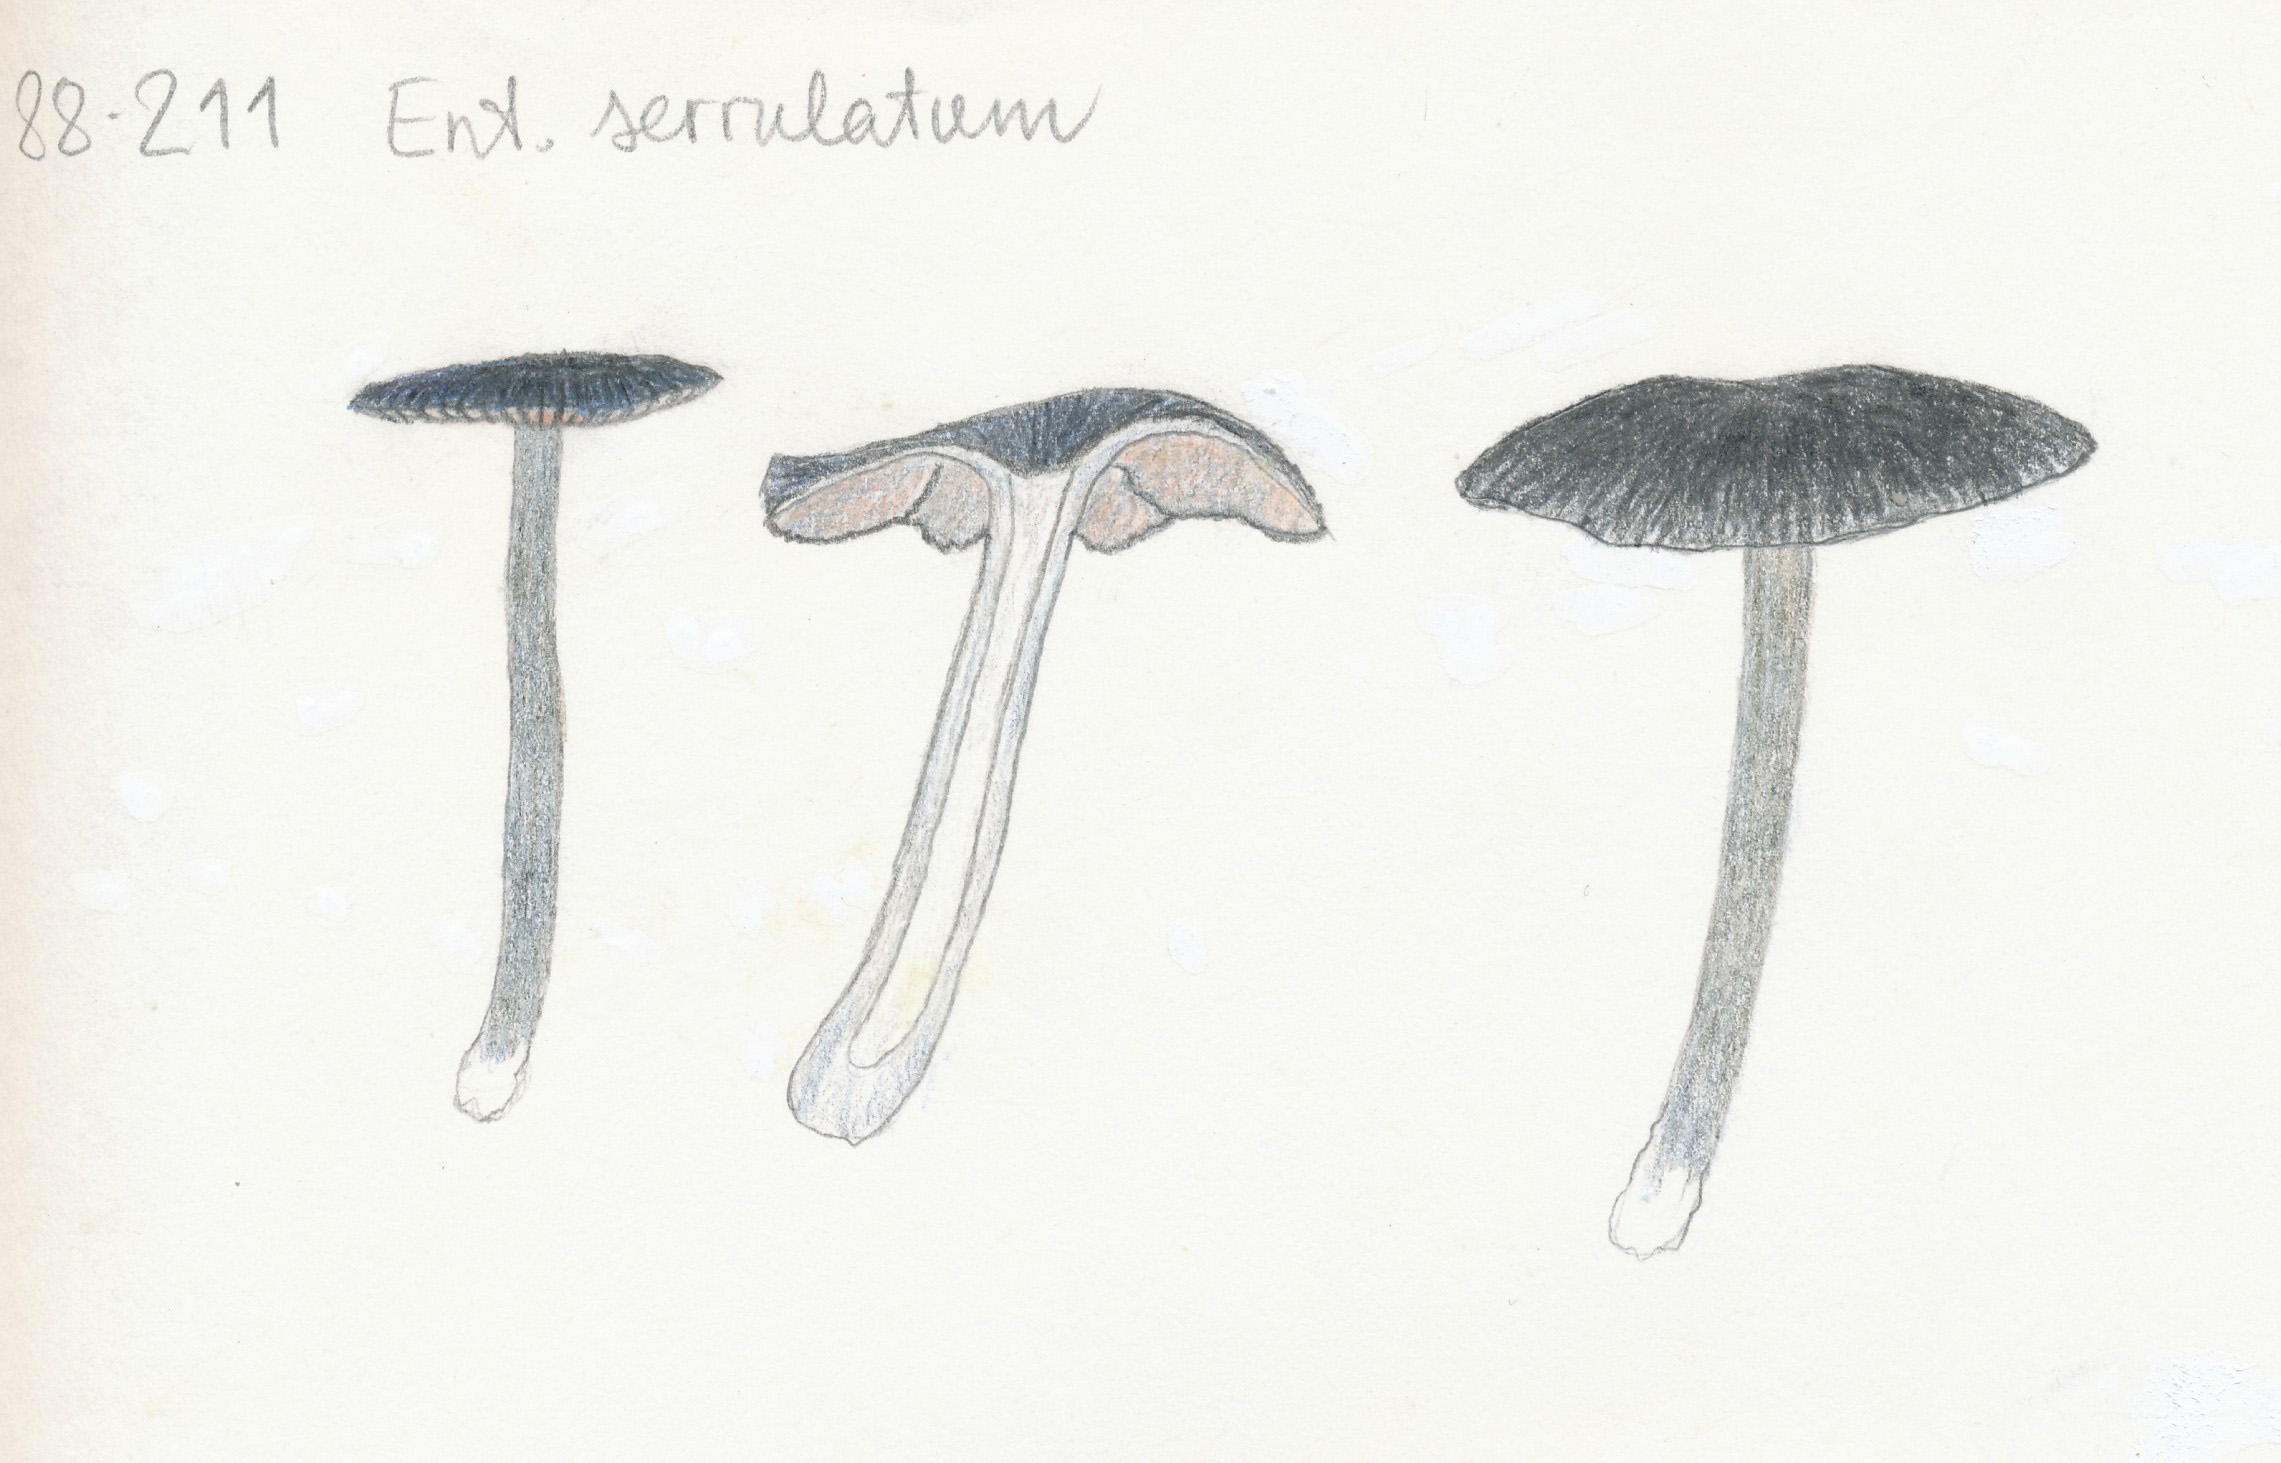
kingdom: Fungi
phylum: Basidiomycota
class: Agaricomycetes
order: Agaricales
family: Entolomataceae
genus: Entoloma
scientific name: Entoloma
